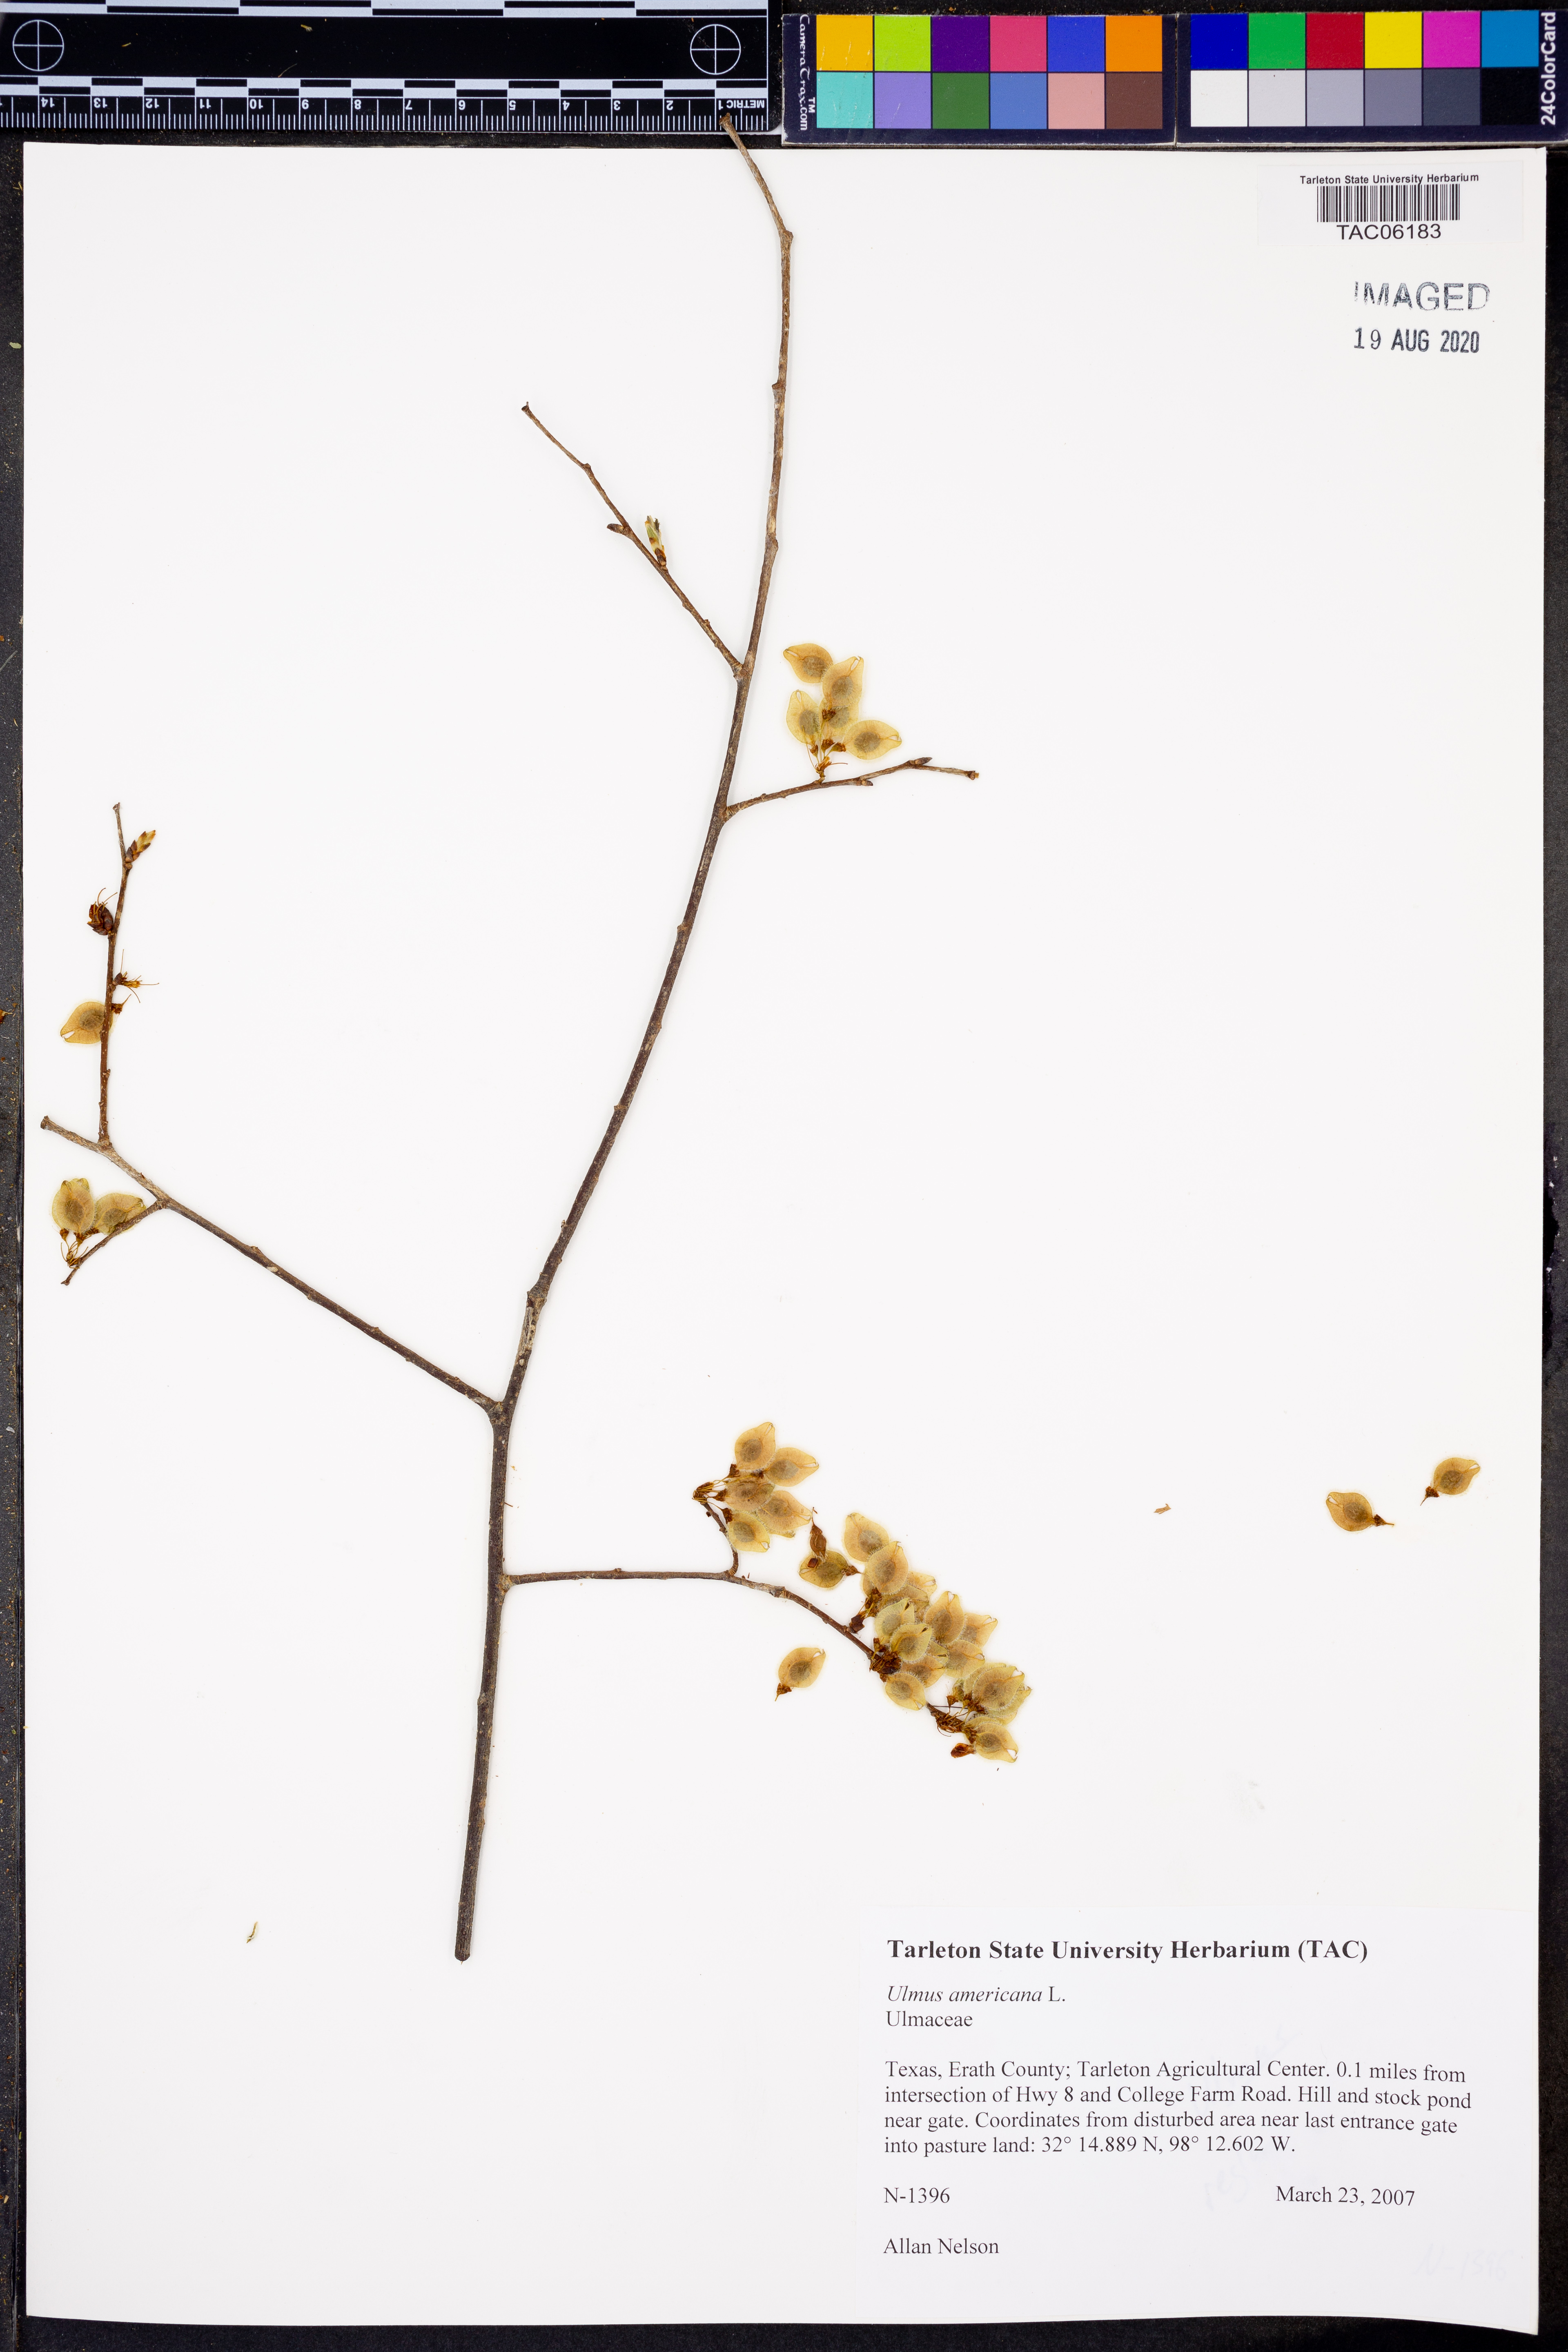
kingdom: Plantae
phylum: Tracheophyta
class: Magnoliopsida
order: Rosales
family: Ulmaceae
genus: Ulmus
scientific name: Ulmus americana
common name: American elm
